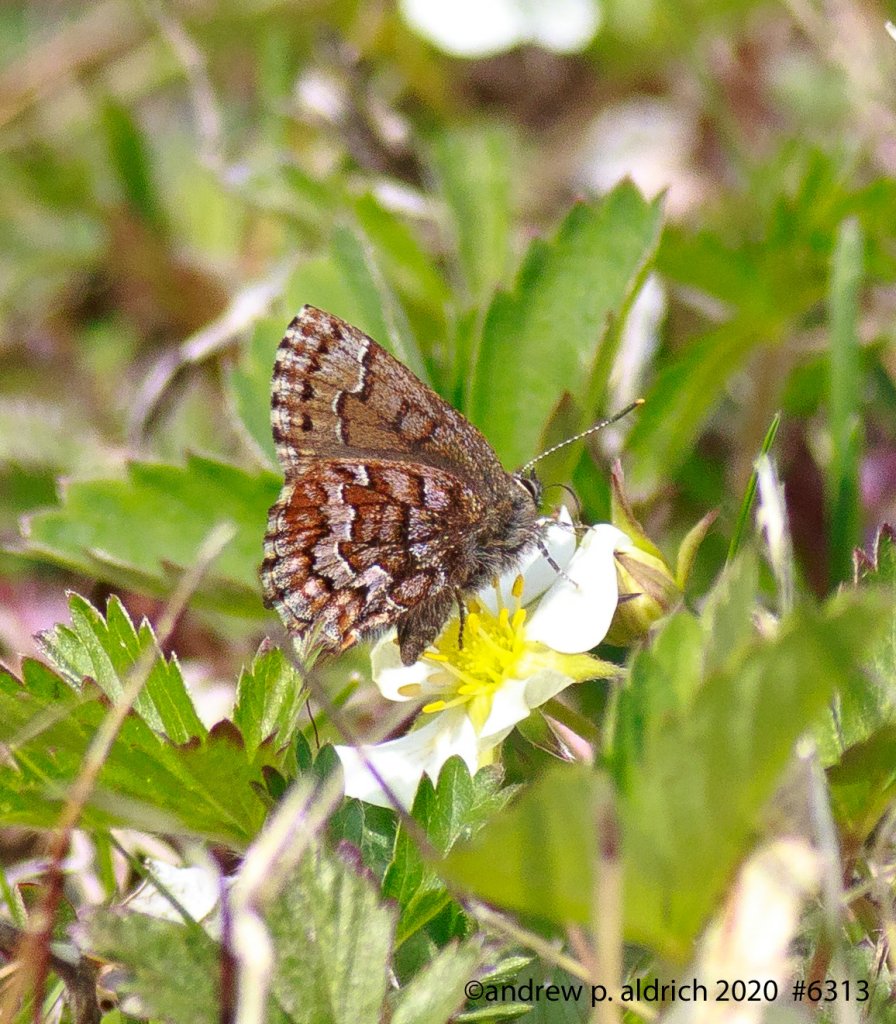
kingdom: Animalia
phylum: Arthropoda
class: Insecta
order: Lepidoptera
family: Lycaenidae
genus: Incisalia
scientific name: Incisalia niphon
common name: Eastern Pine Elfin
